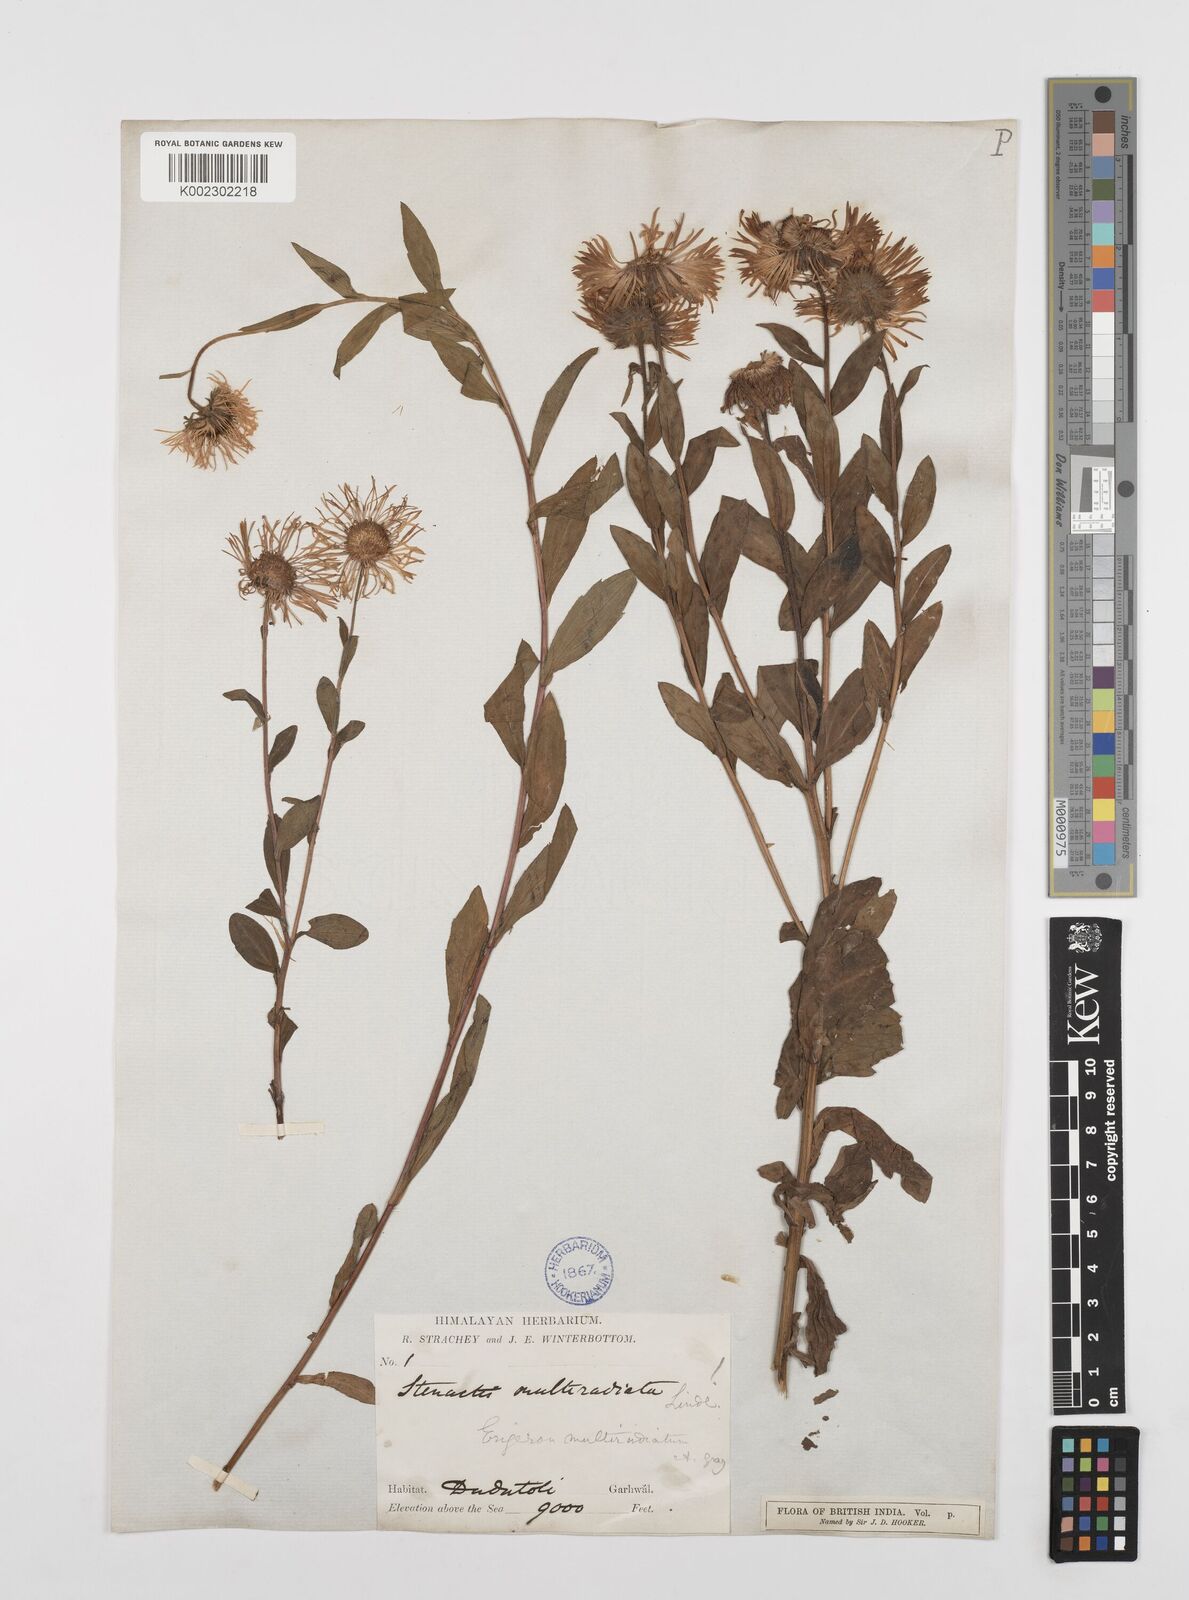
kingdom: Plantae
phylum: Tracheophyta
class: Magnoliopsida
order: Asterales
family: Asteraceae
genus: Erigeron
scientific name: Erigeron multiradiatus
